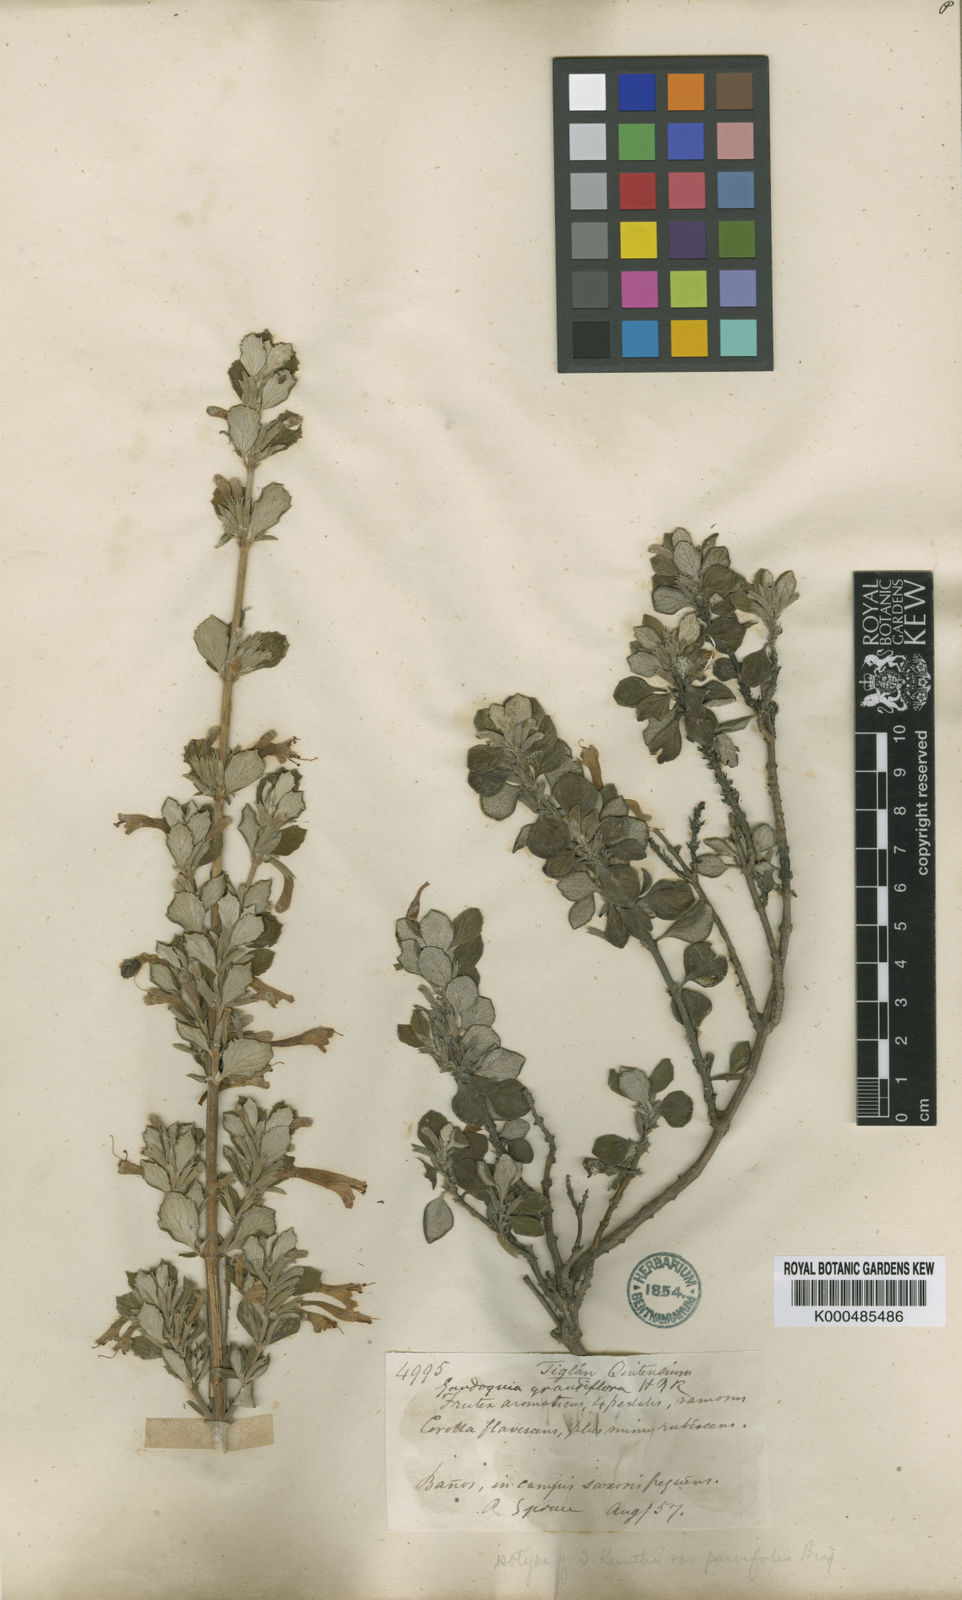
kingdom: Plantae
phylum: Tracheophyta
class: Magnoliopsida
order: Lamiales
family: Lamiaceae
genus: Clinopodium
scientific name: Clinopodium tomentosum
